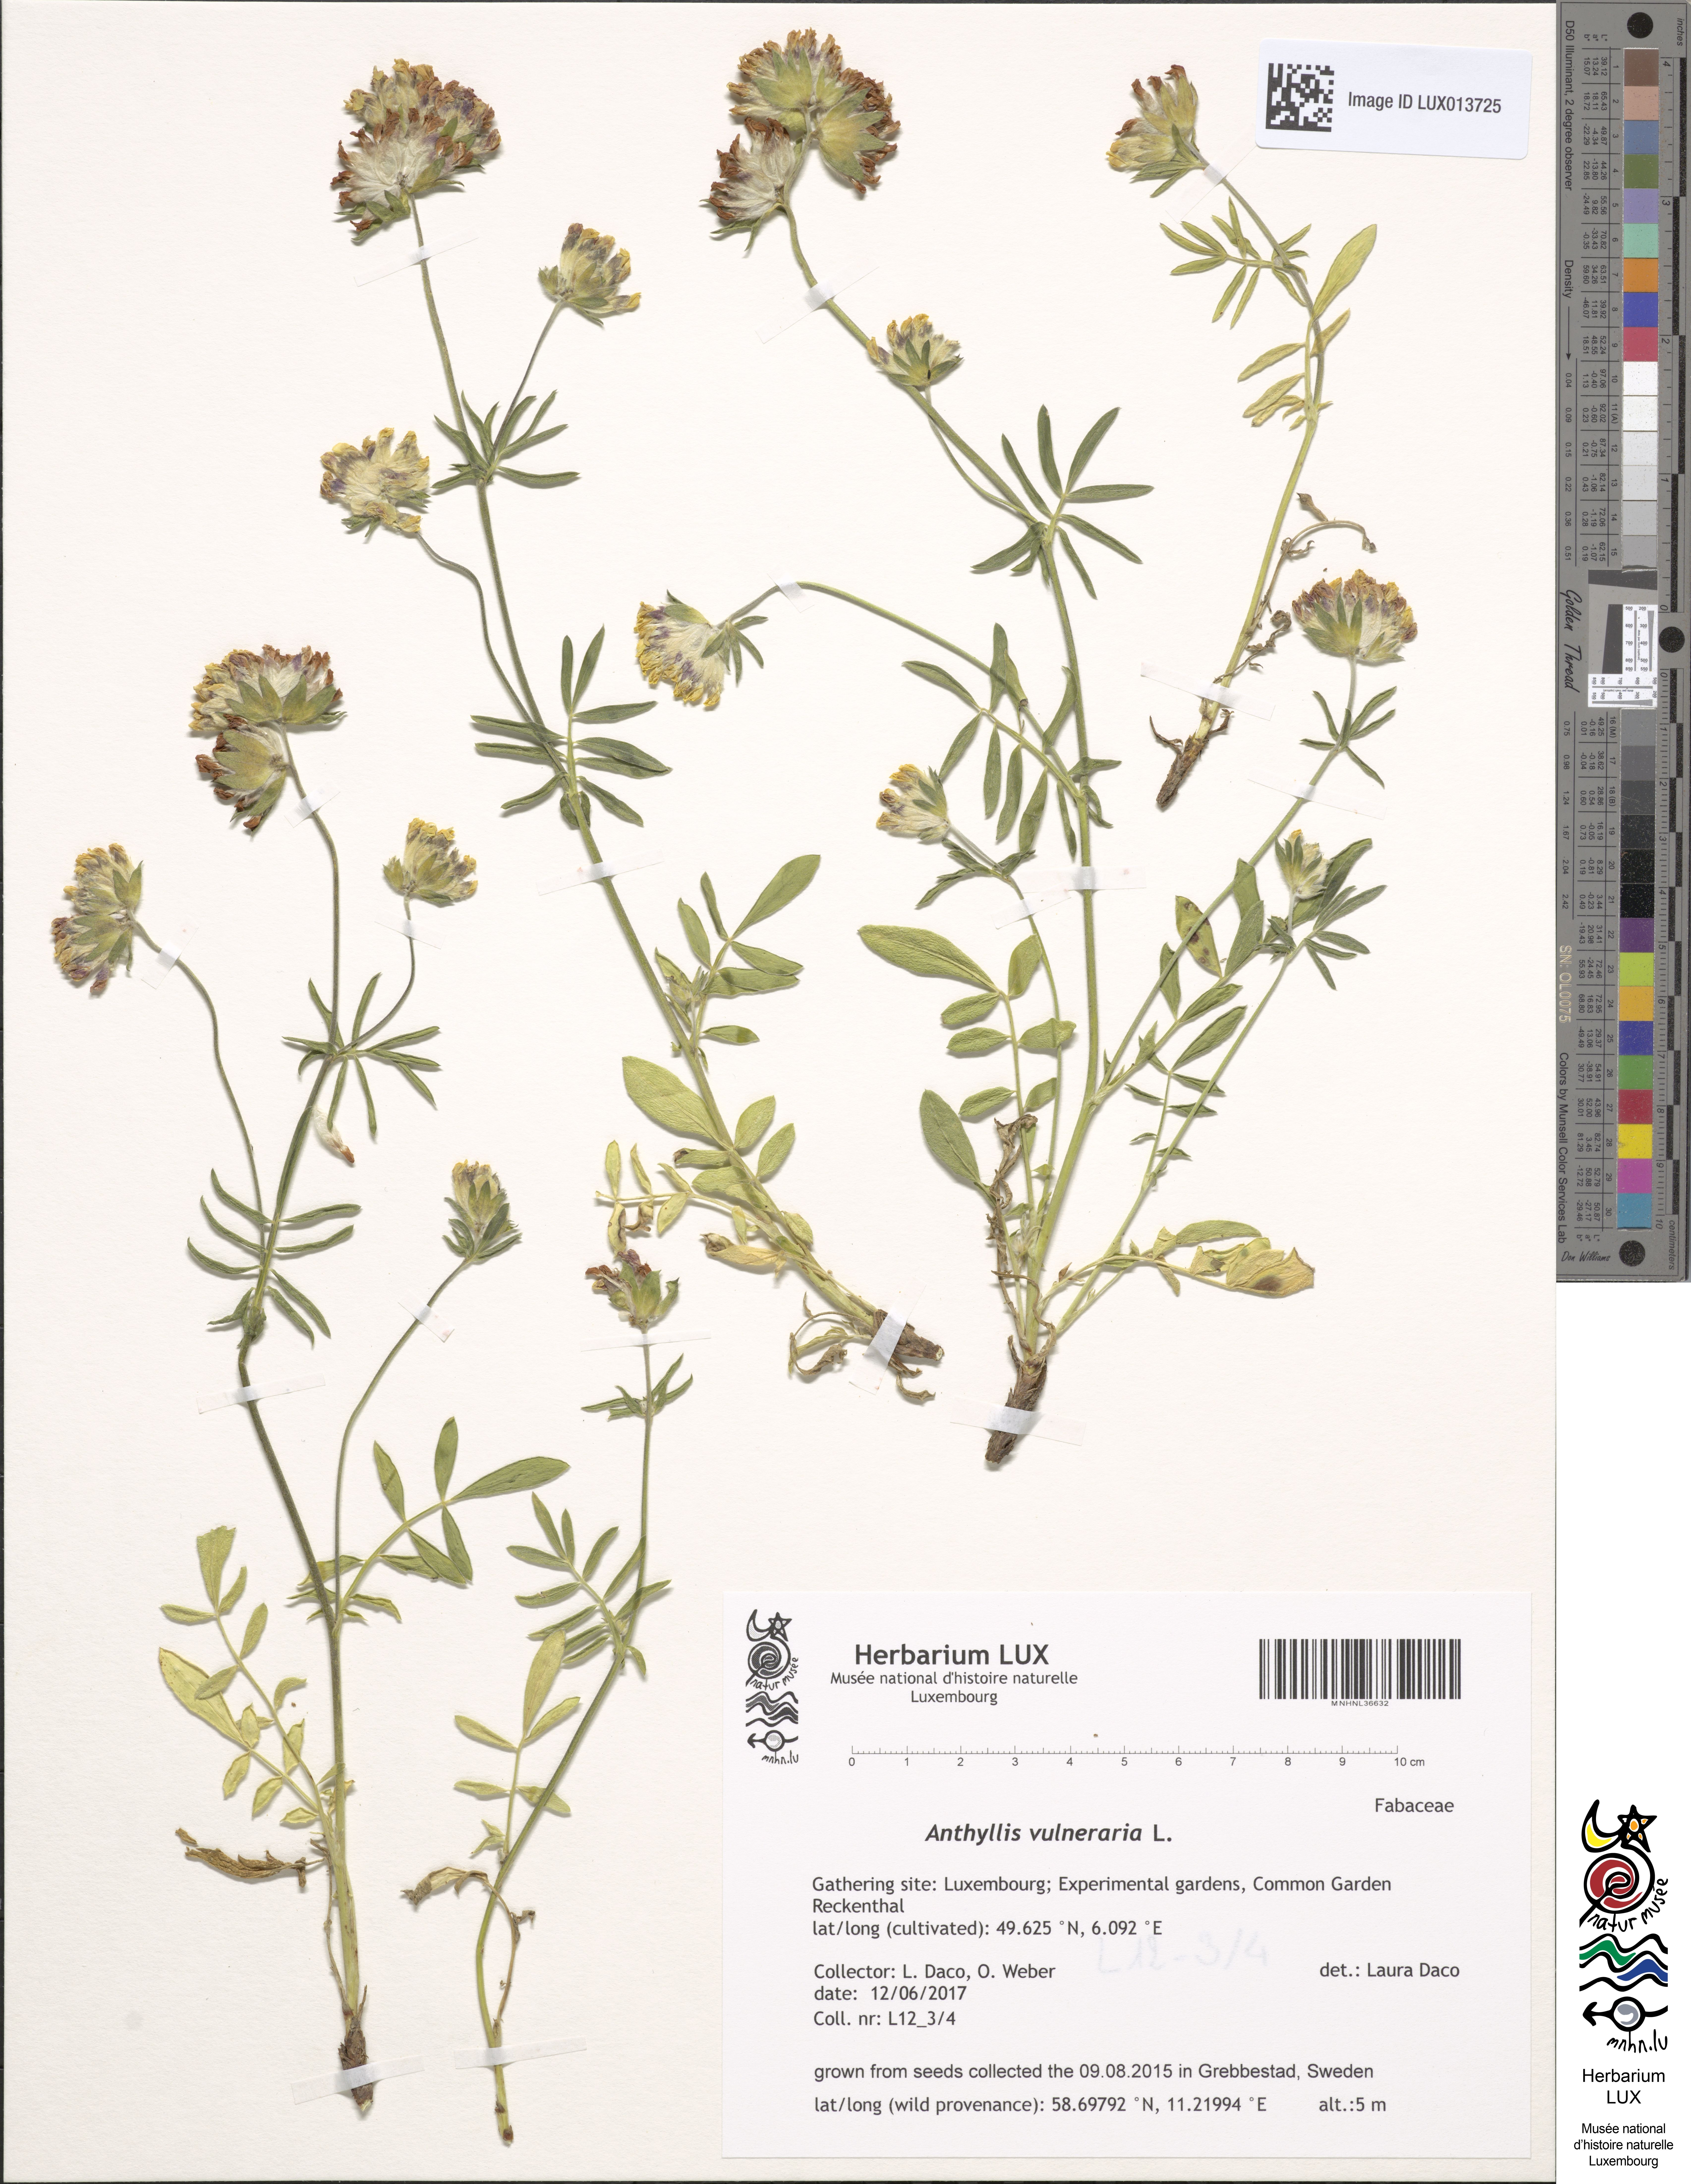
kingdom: Plantae
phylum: Tracheophyta
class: Magnoliopsida
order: Fabales
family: Fabaceae
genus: Anthyllis
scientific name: Anthyllis vulneraria
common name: Kidney vetch
